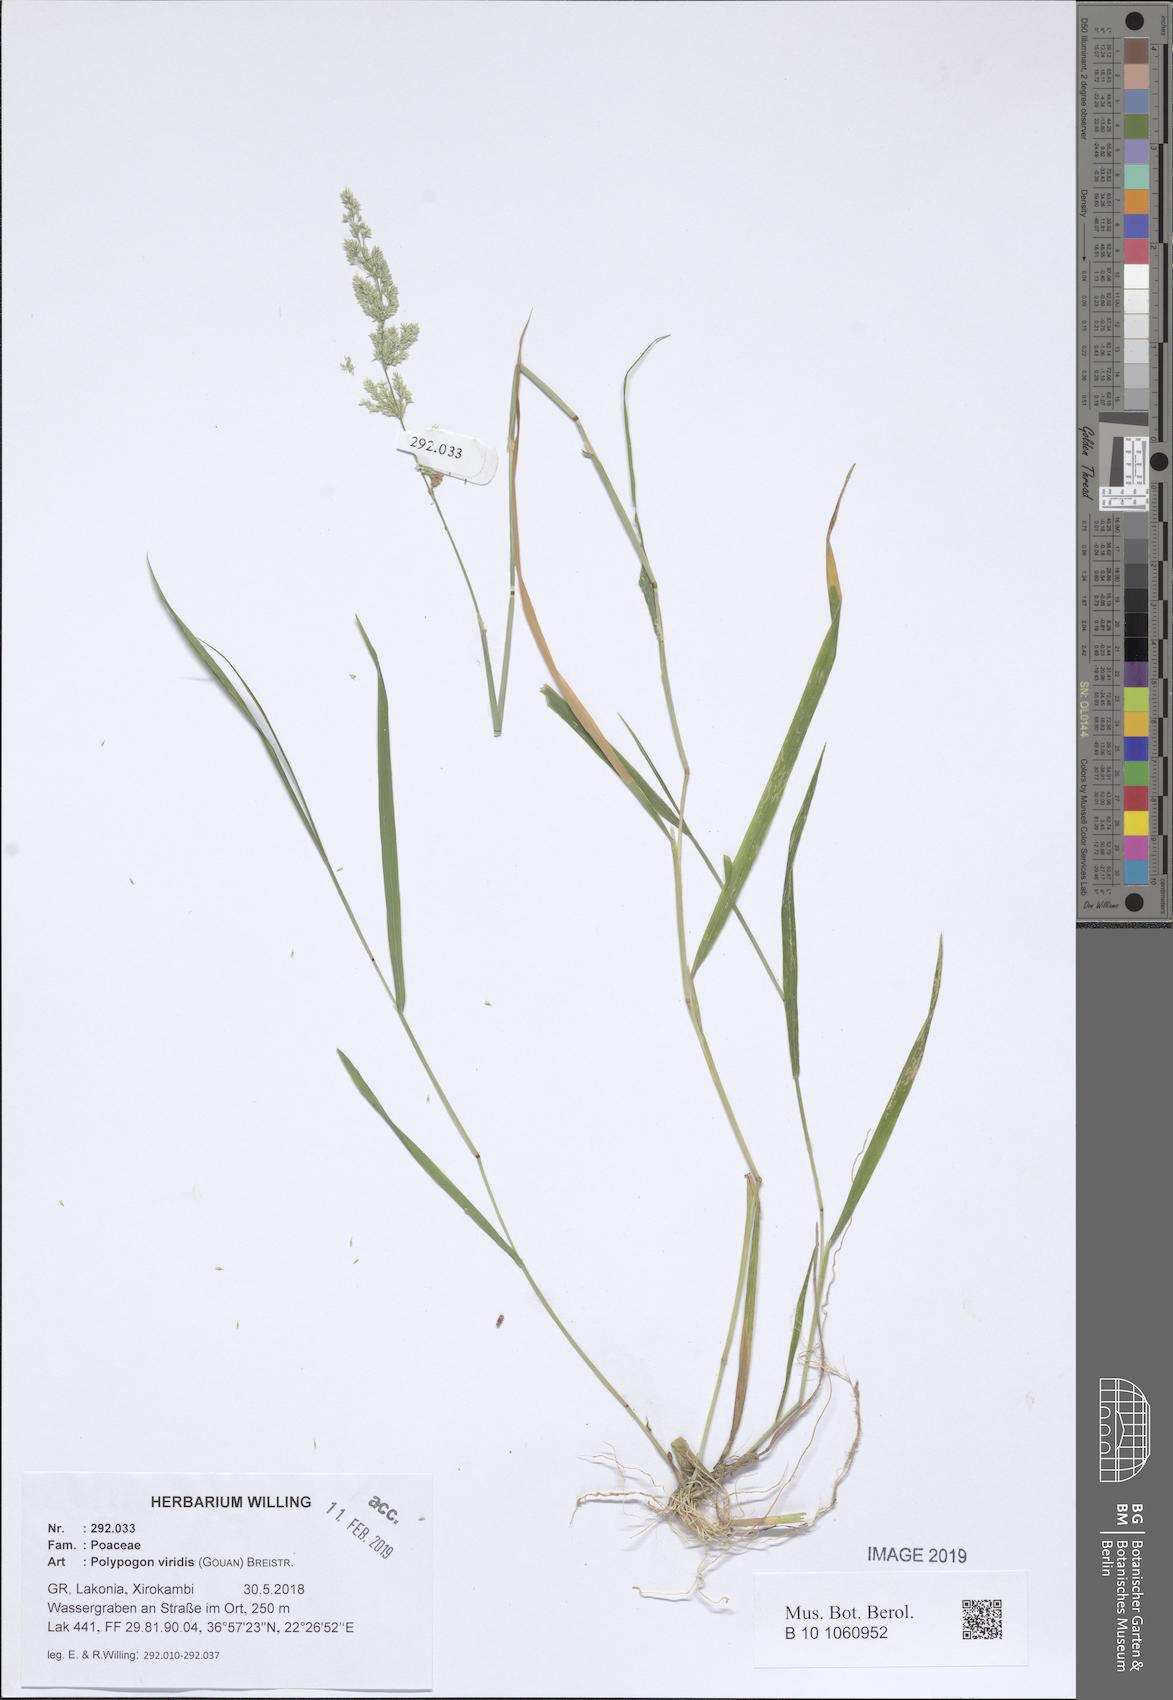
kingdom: Plantae
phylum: Tracheophyta
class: Liliopsida
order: Poales
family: Poaceae
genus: Polypogon
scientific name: Polypogon viridis
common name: Water bent
